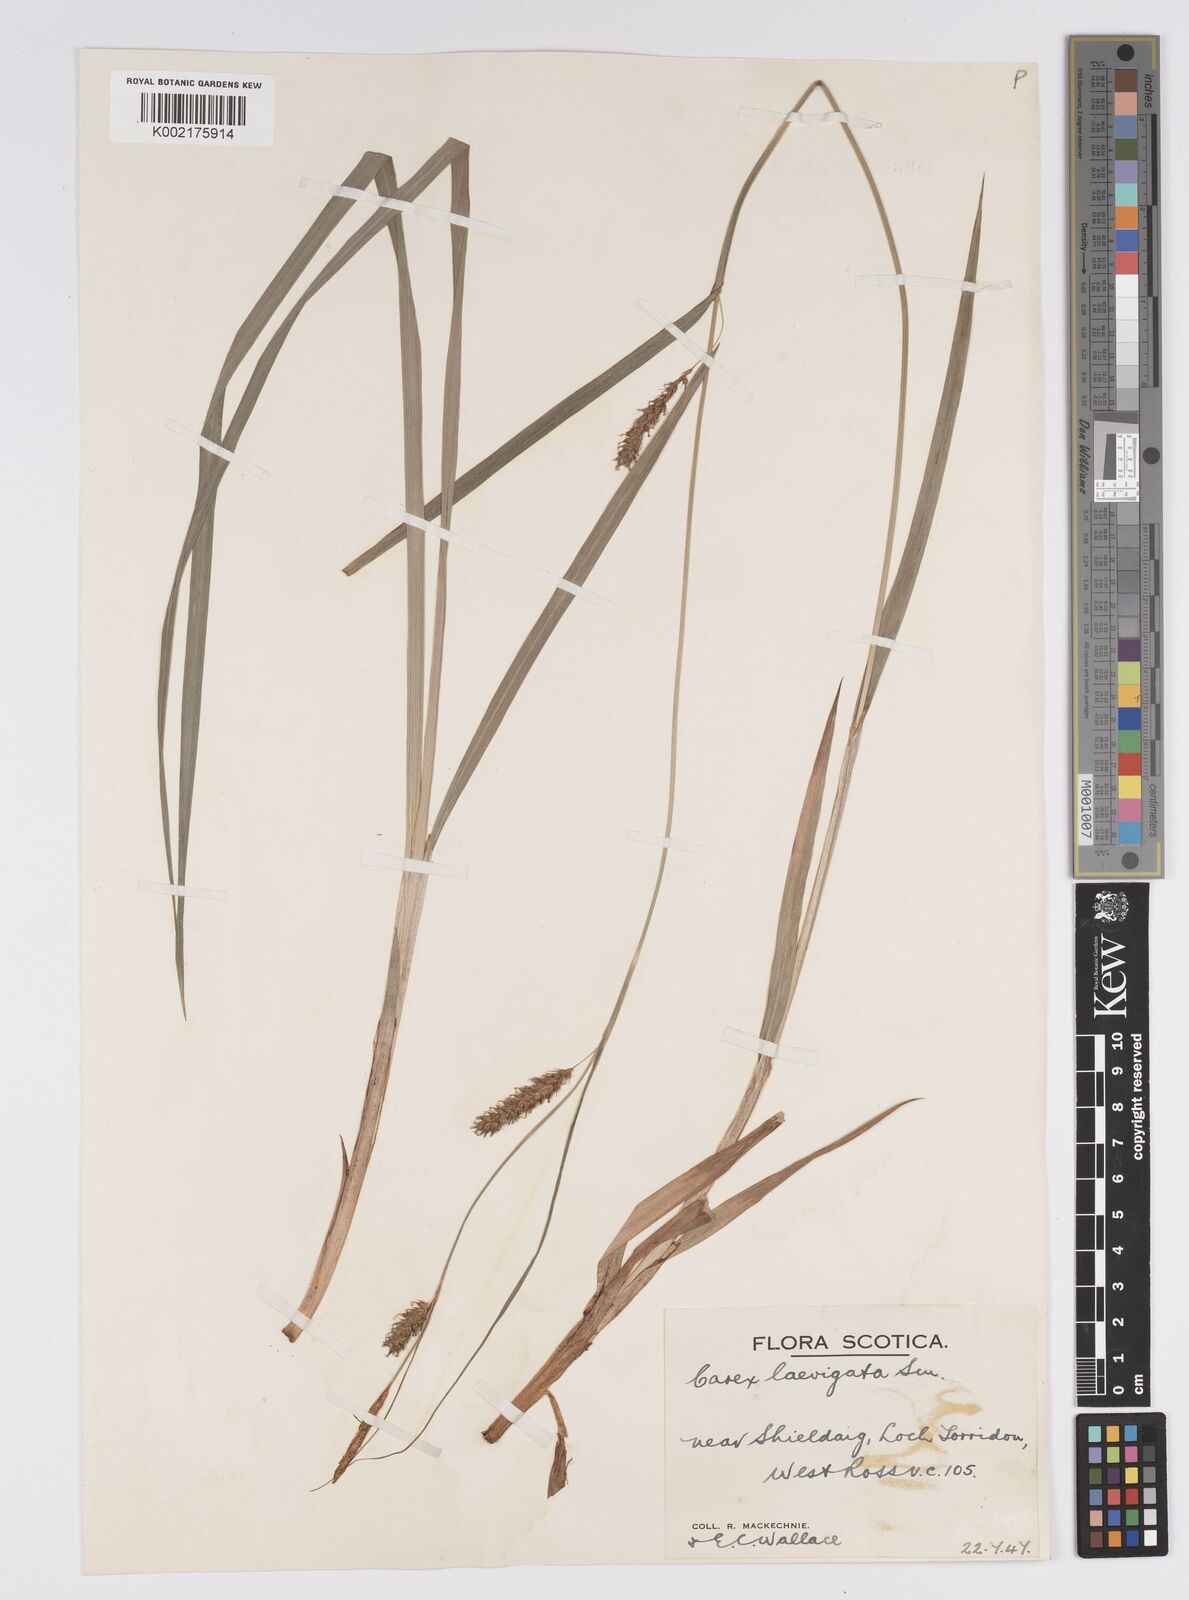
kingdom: Plantae
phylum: Tracheophyta
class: Liliopsida
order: Poales
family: Cyperaceae
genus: Carex
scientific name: Carex laevigata
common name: Smooth-stalked sedge
